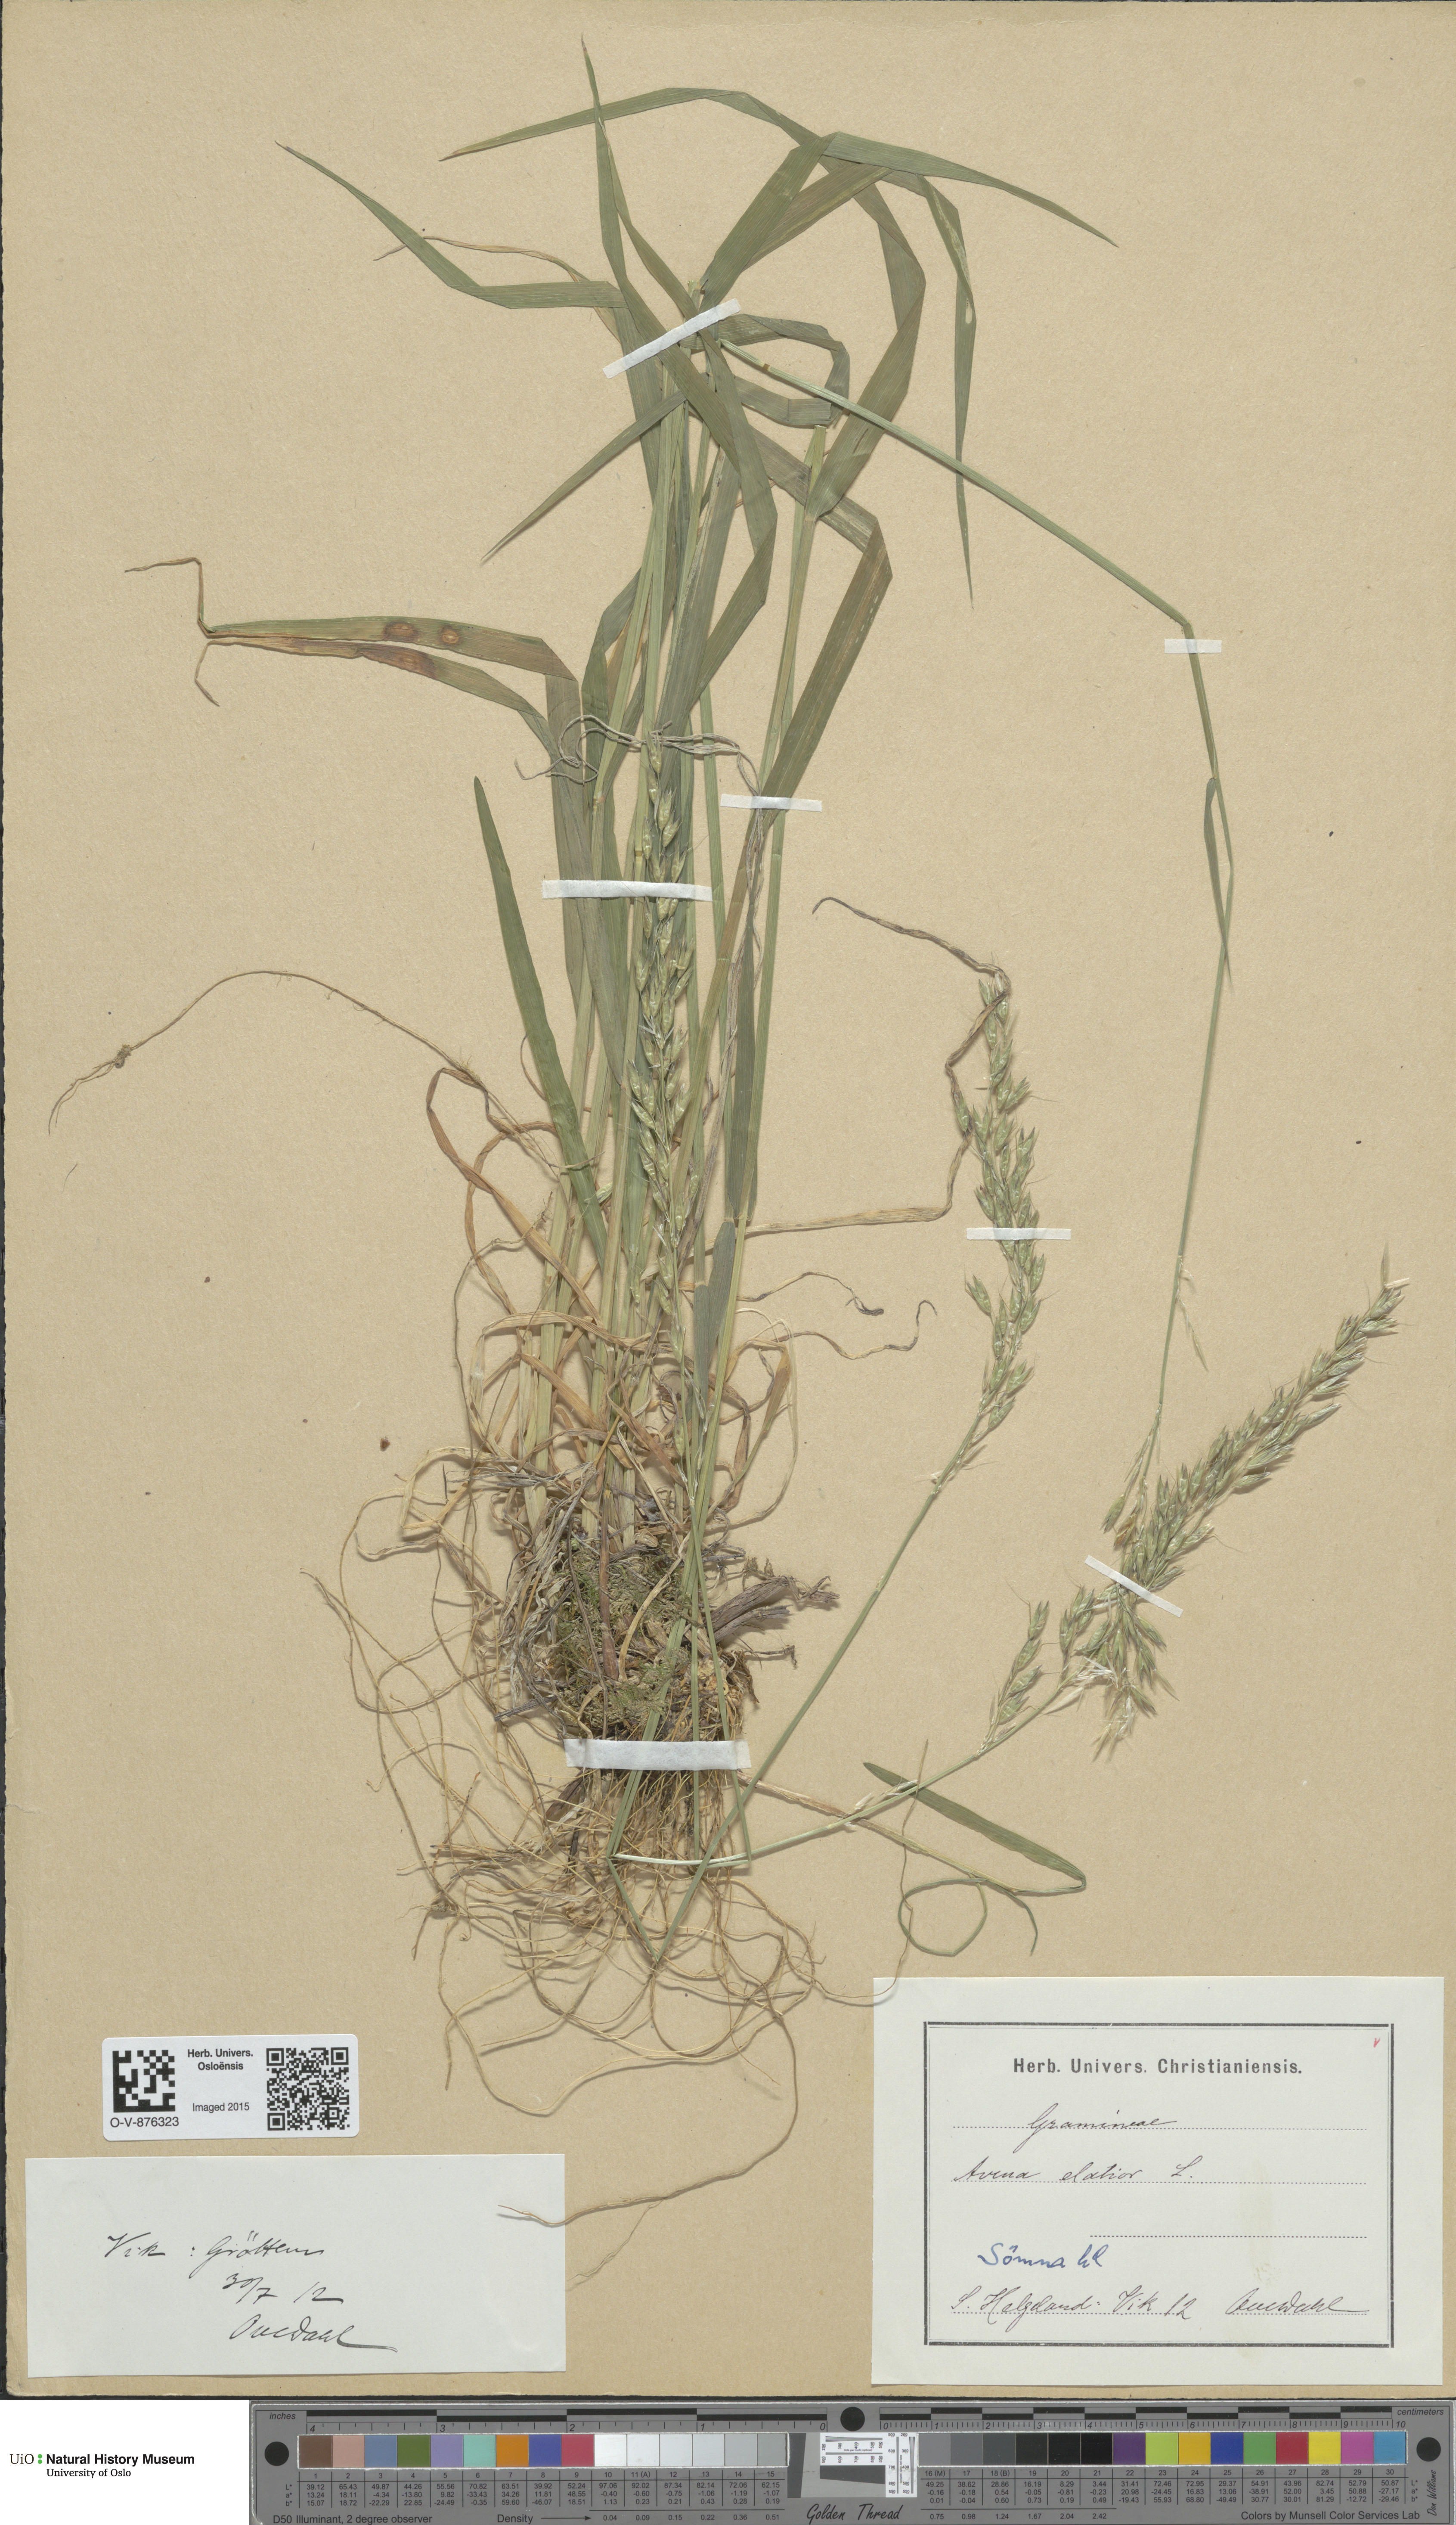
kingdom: Plantae
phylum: Tracheophyta
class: Liliopsida
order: Poales
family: Poaceae
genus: Arrhenatherum
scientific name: Arrhenatherum elatius
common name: Tall oatgrass
